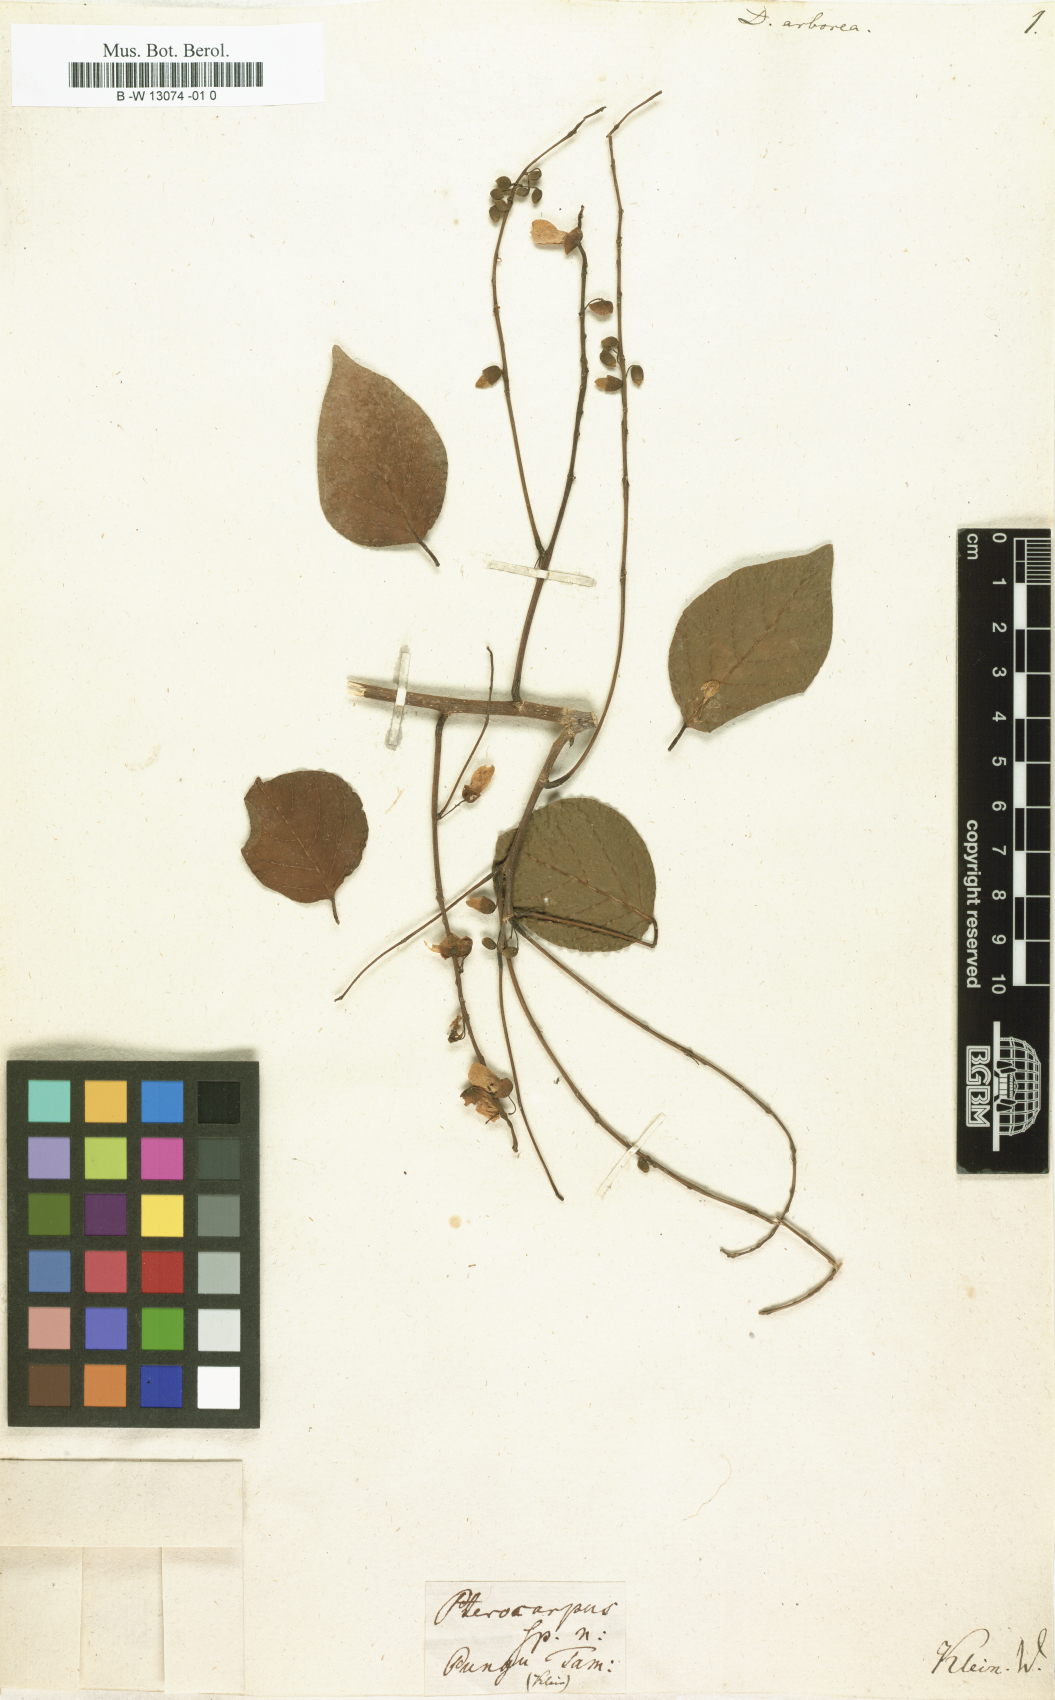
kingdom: Plantae
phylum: Tracheophyta
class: Magnoliopsida
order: Fabales
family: Fabaceae
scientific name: Fabaceae
